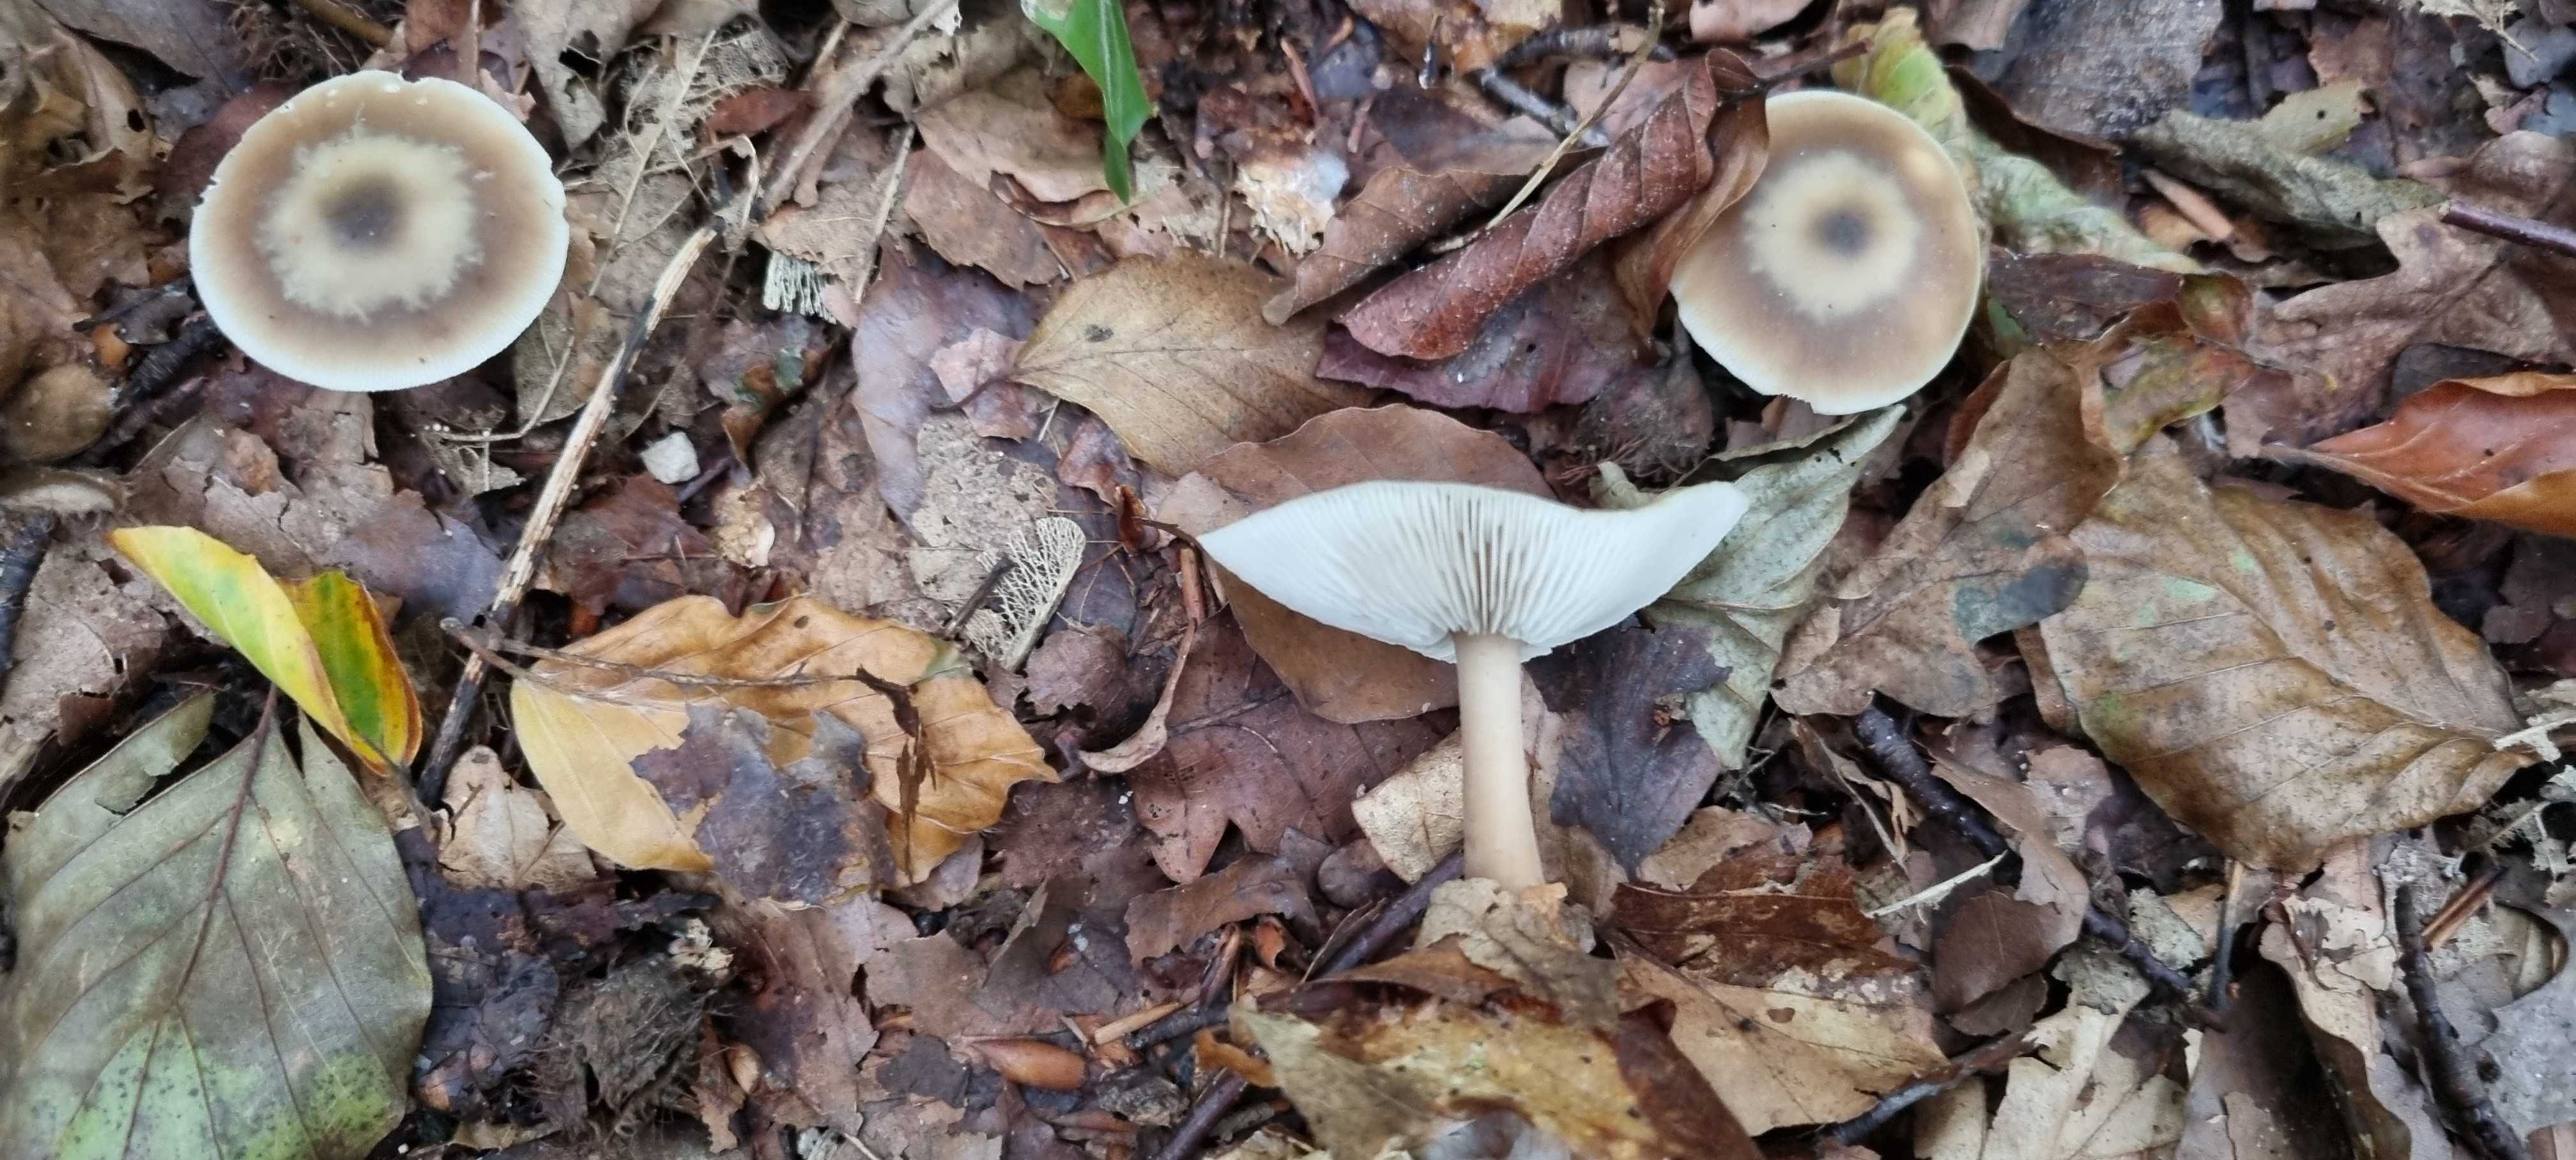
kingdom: Fungi
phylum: Basidiomycota
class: Agaricomycetes
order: Agaricales
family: Omphalotaceae
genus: Rhodocollybia
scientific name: Rhodocollybia asema
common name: horngrå fladhat
